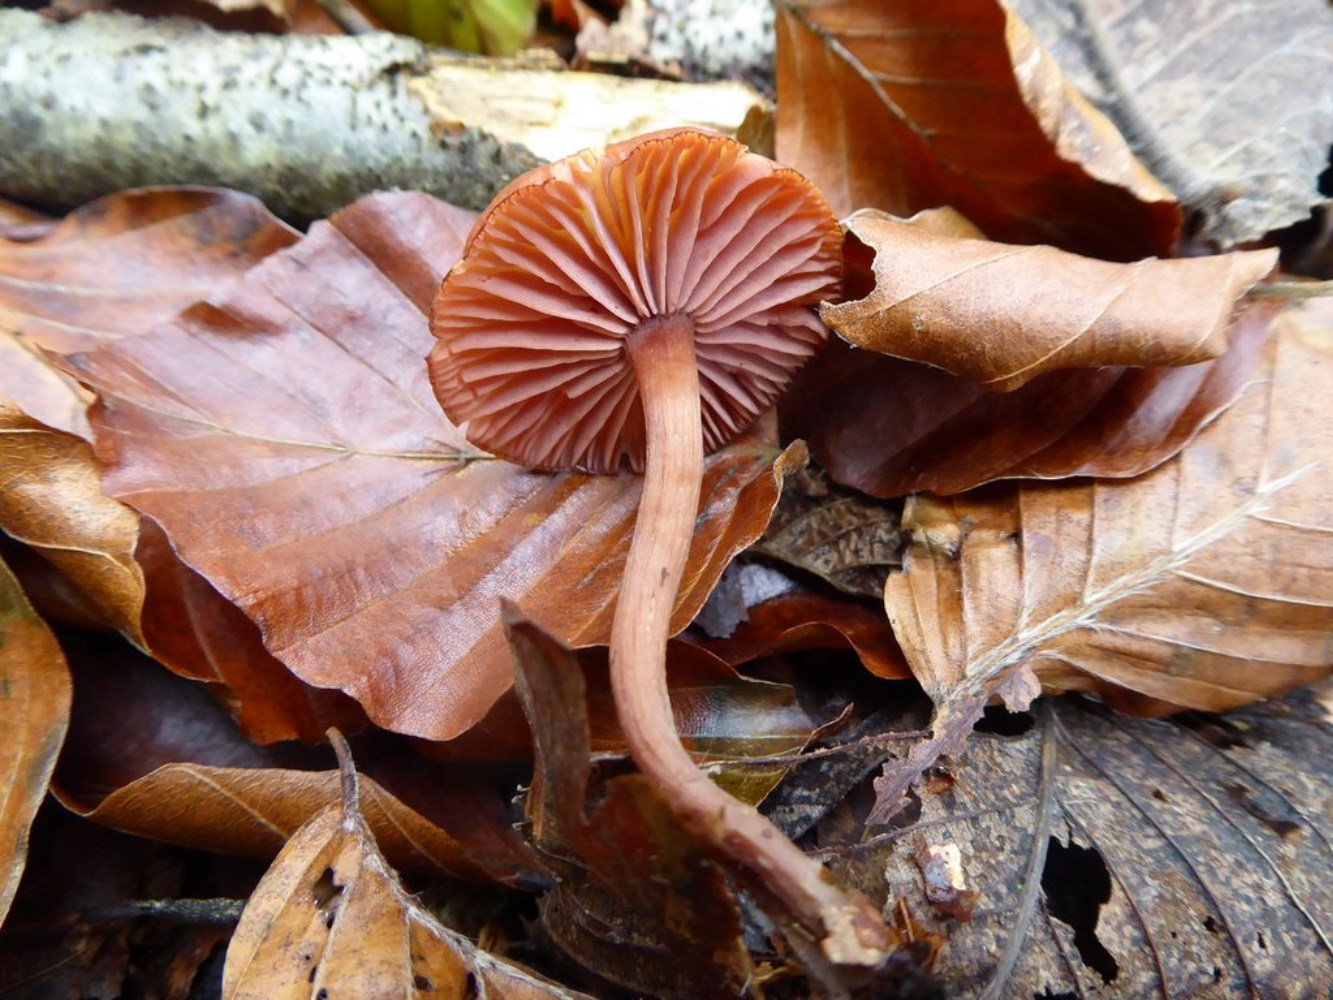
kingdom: Fungi
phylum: Basidiomycota
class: Agaricomycetes
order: Agaricales
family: Hydnangiaceae
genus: Laccaria
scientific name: Laccaria laccata
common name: rød ametysthat
